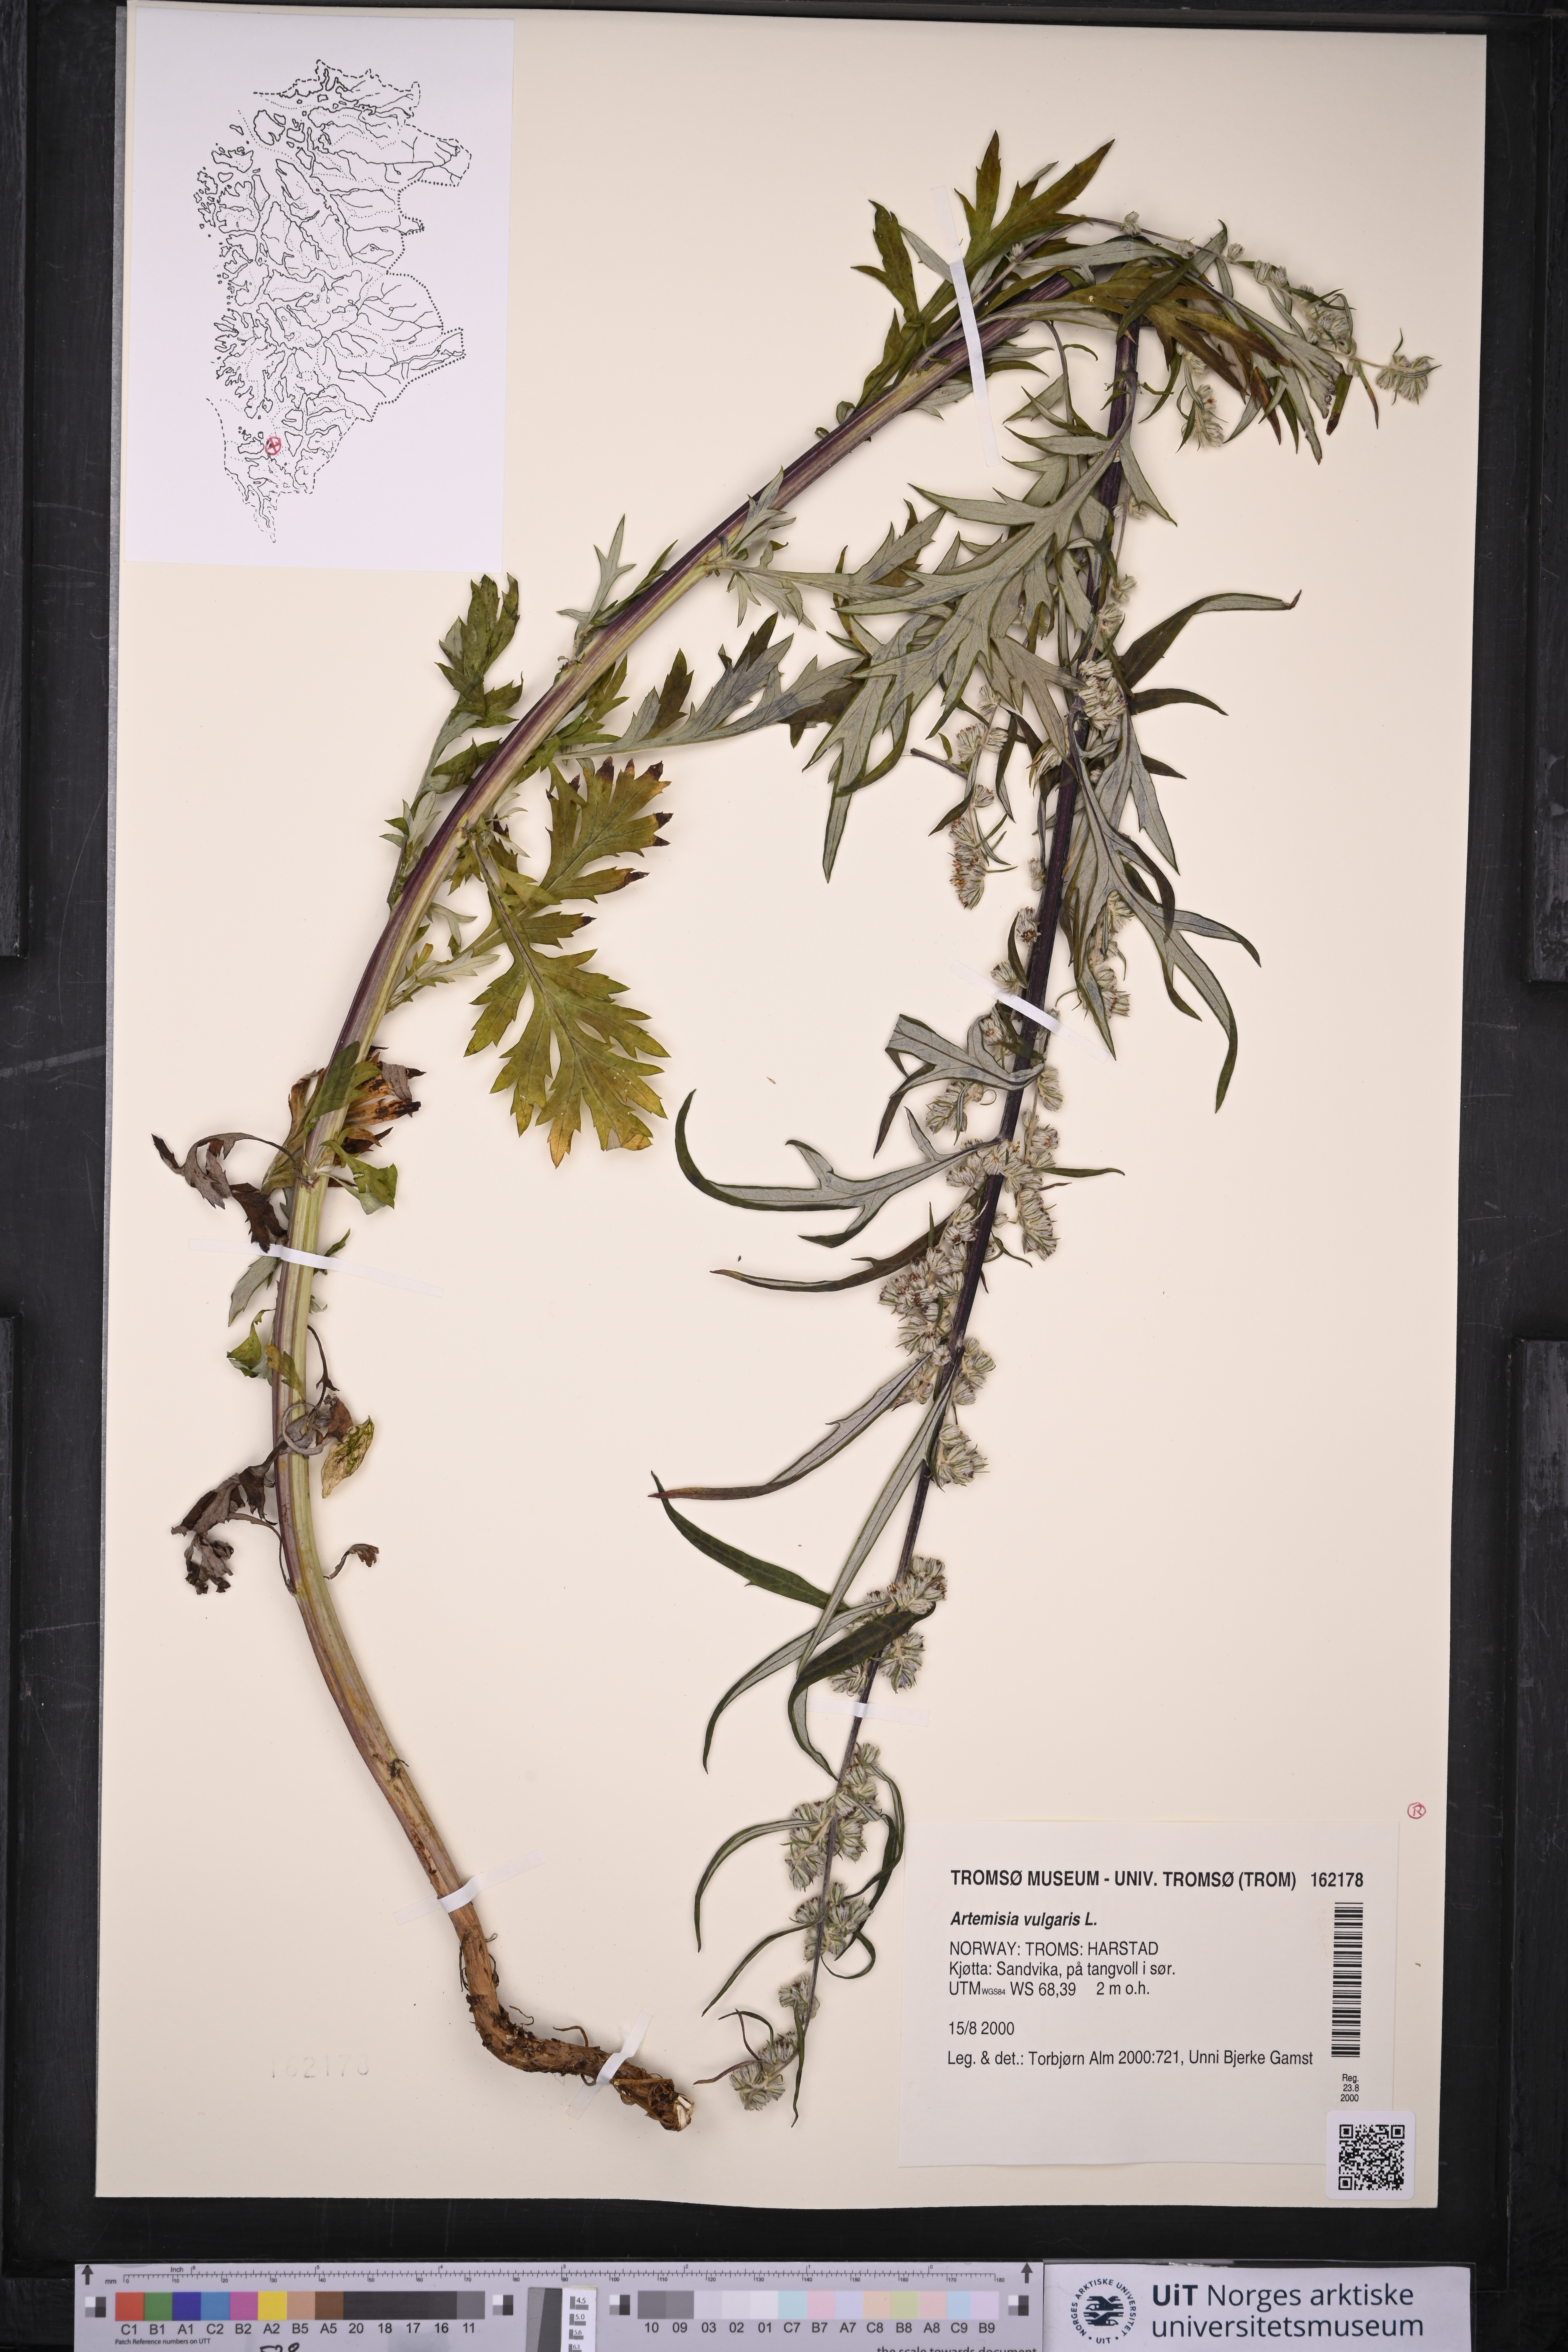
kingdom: Plantae
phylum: Tracheophyta
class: Magnoliopsida
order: Asterales
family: Asteraceae
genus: Artemisia
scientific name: Artemisia vulgaris
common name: Mugwort
